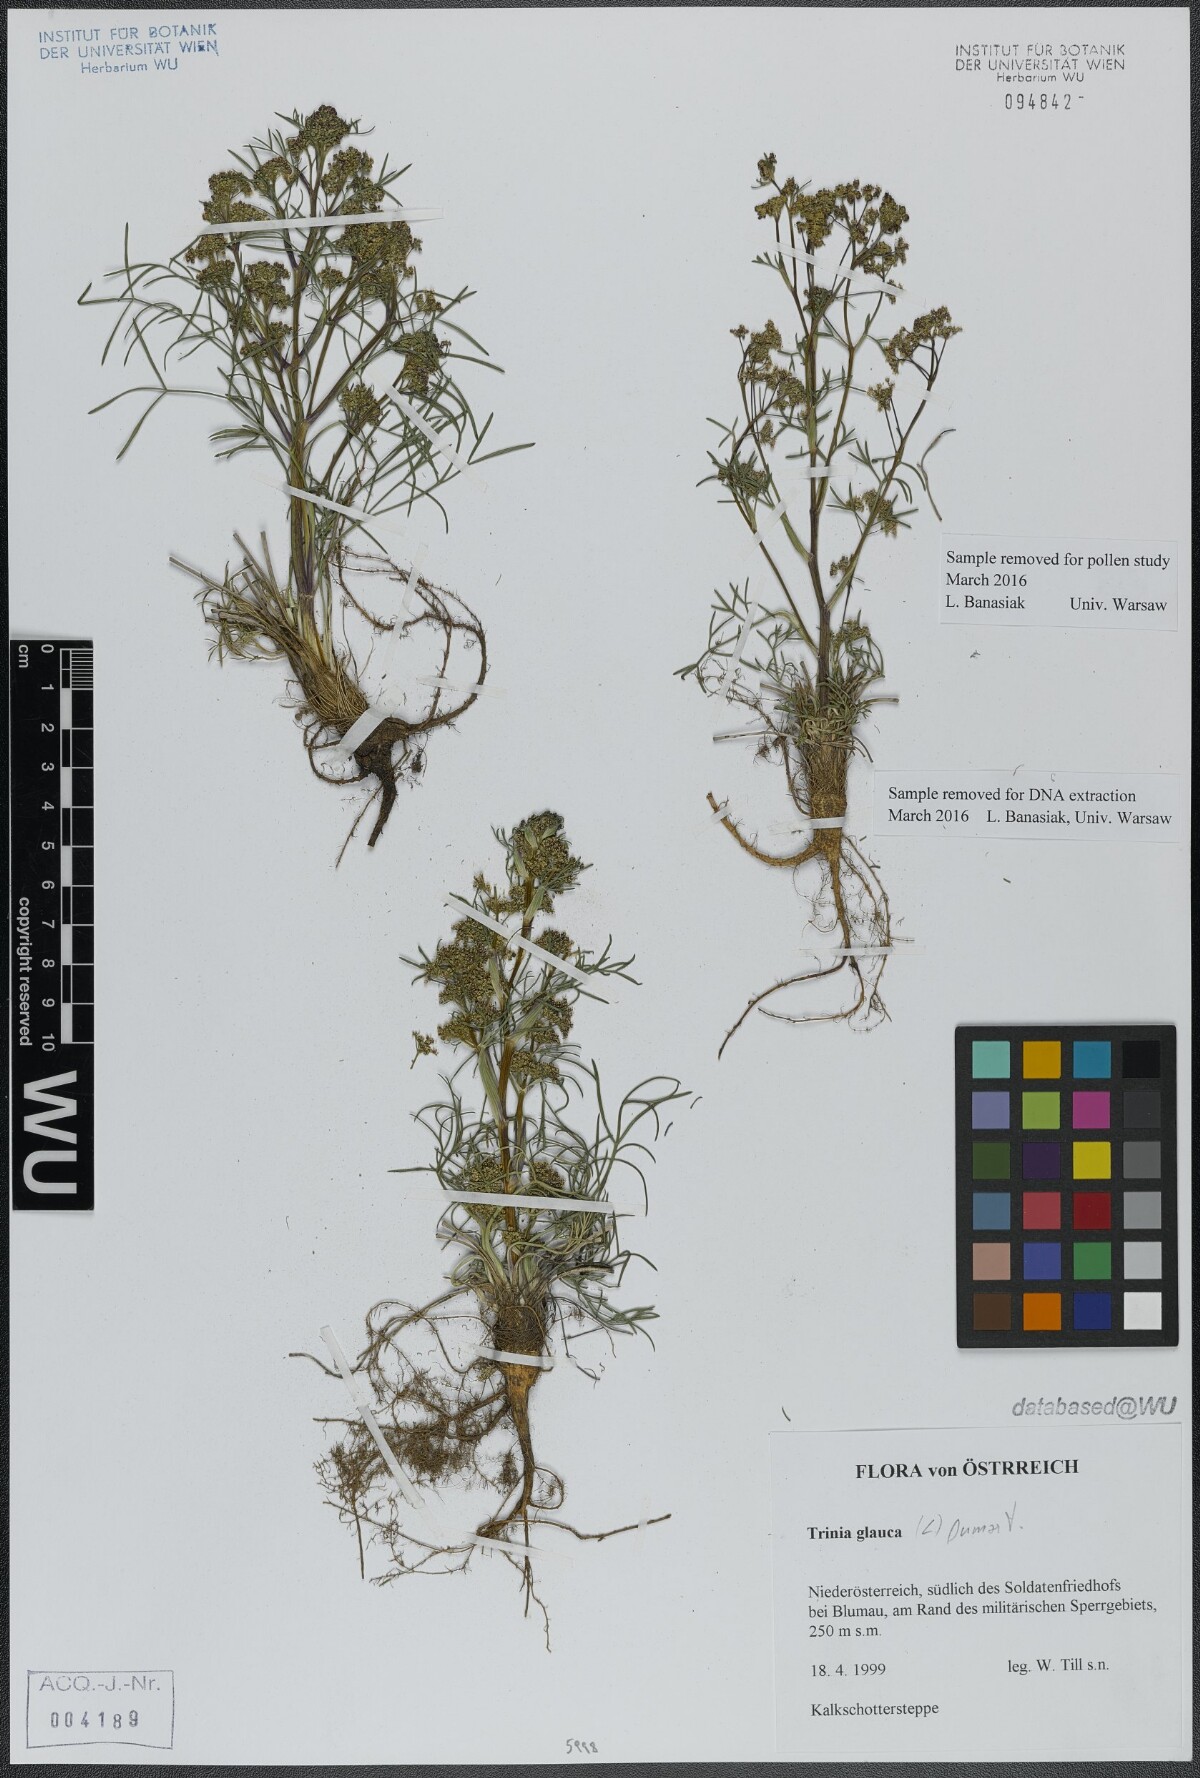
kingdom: Plantae
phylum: Tracheophyta
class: Magnoliopsida
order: Apiales
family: Apiaceae
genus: Trinia
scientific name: Trinia glauca
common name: Honewort
